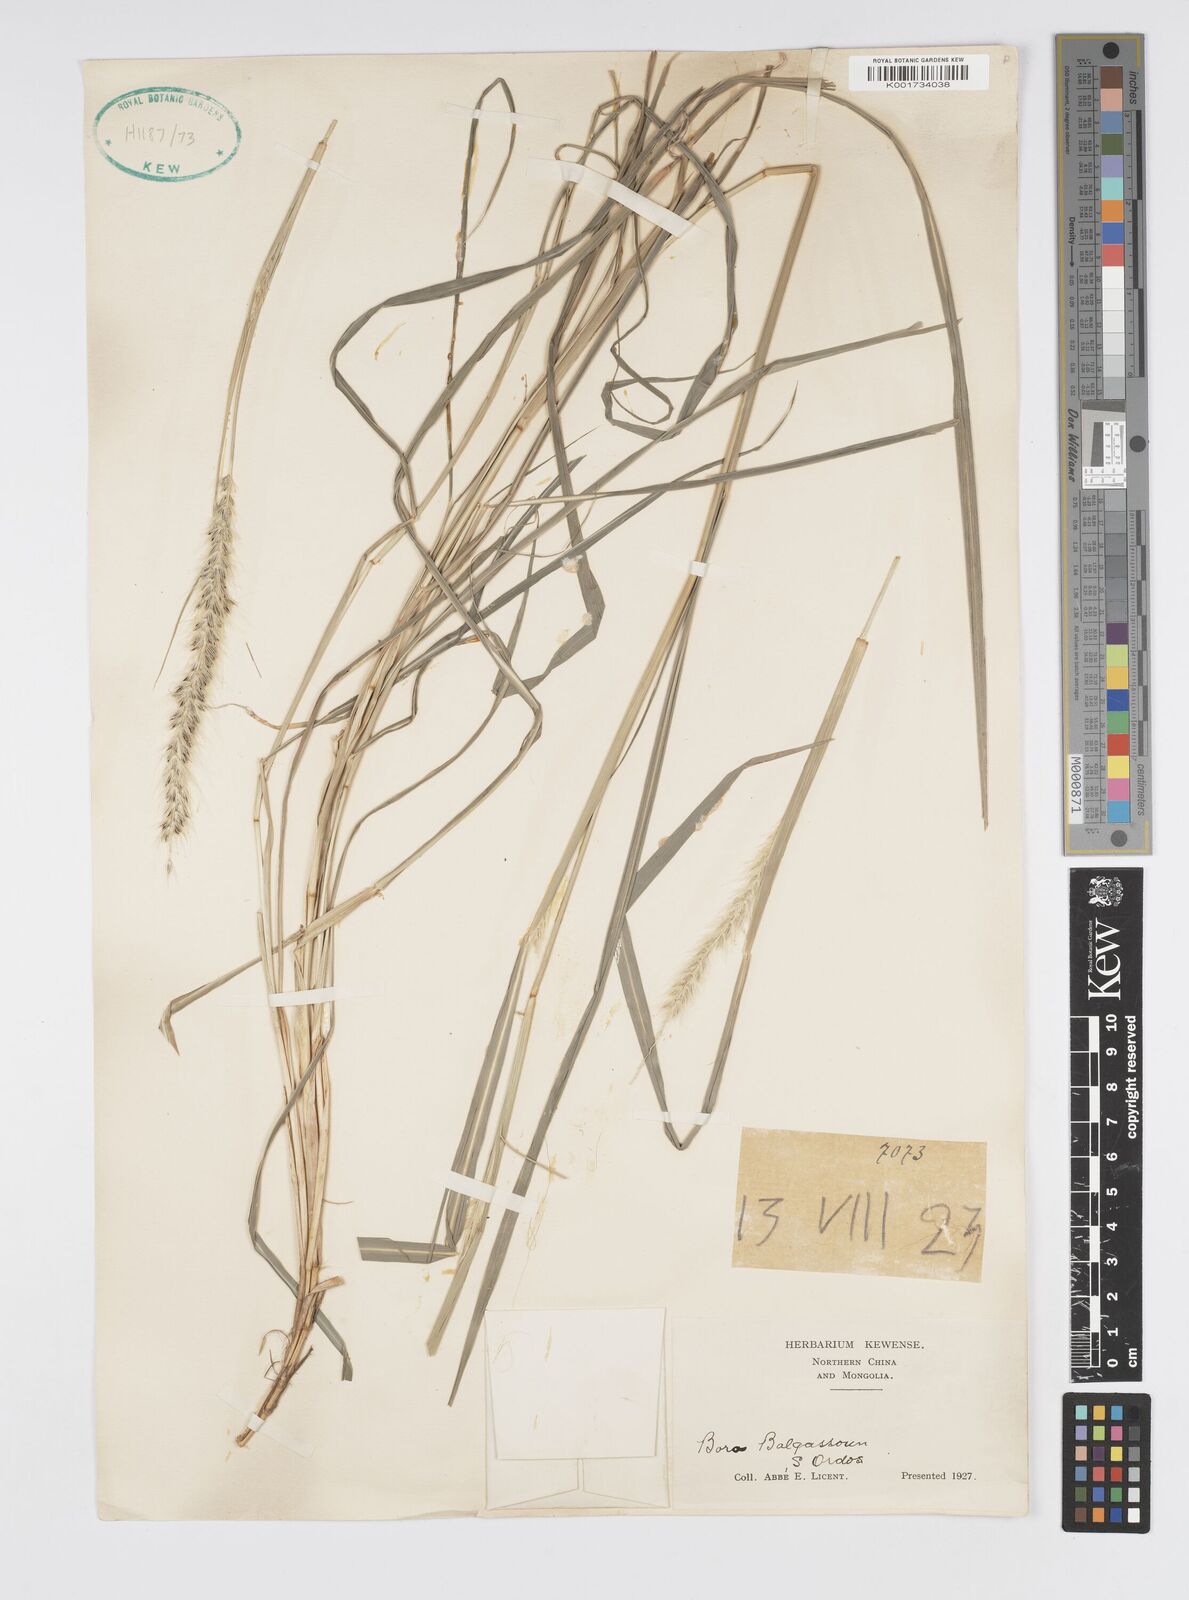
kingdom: Plantae
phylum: Tracheophyta
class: Liliopsida
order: Poales
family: Poaceae
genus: Cenchrus
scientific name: Cenchrus flaccidus
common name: Flaccid grass
